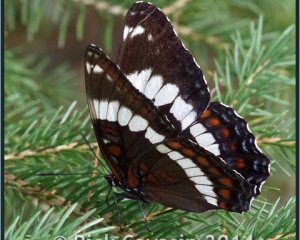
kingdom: Animalia
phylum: Arthropoda
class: Insecta
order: Lepidoptera
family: Nymphalidae
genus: Limenitis
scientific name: Limenitis arthemis
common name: Red-spotted Admiral
